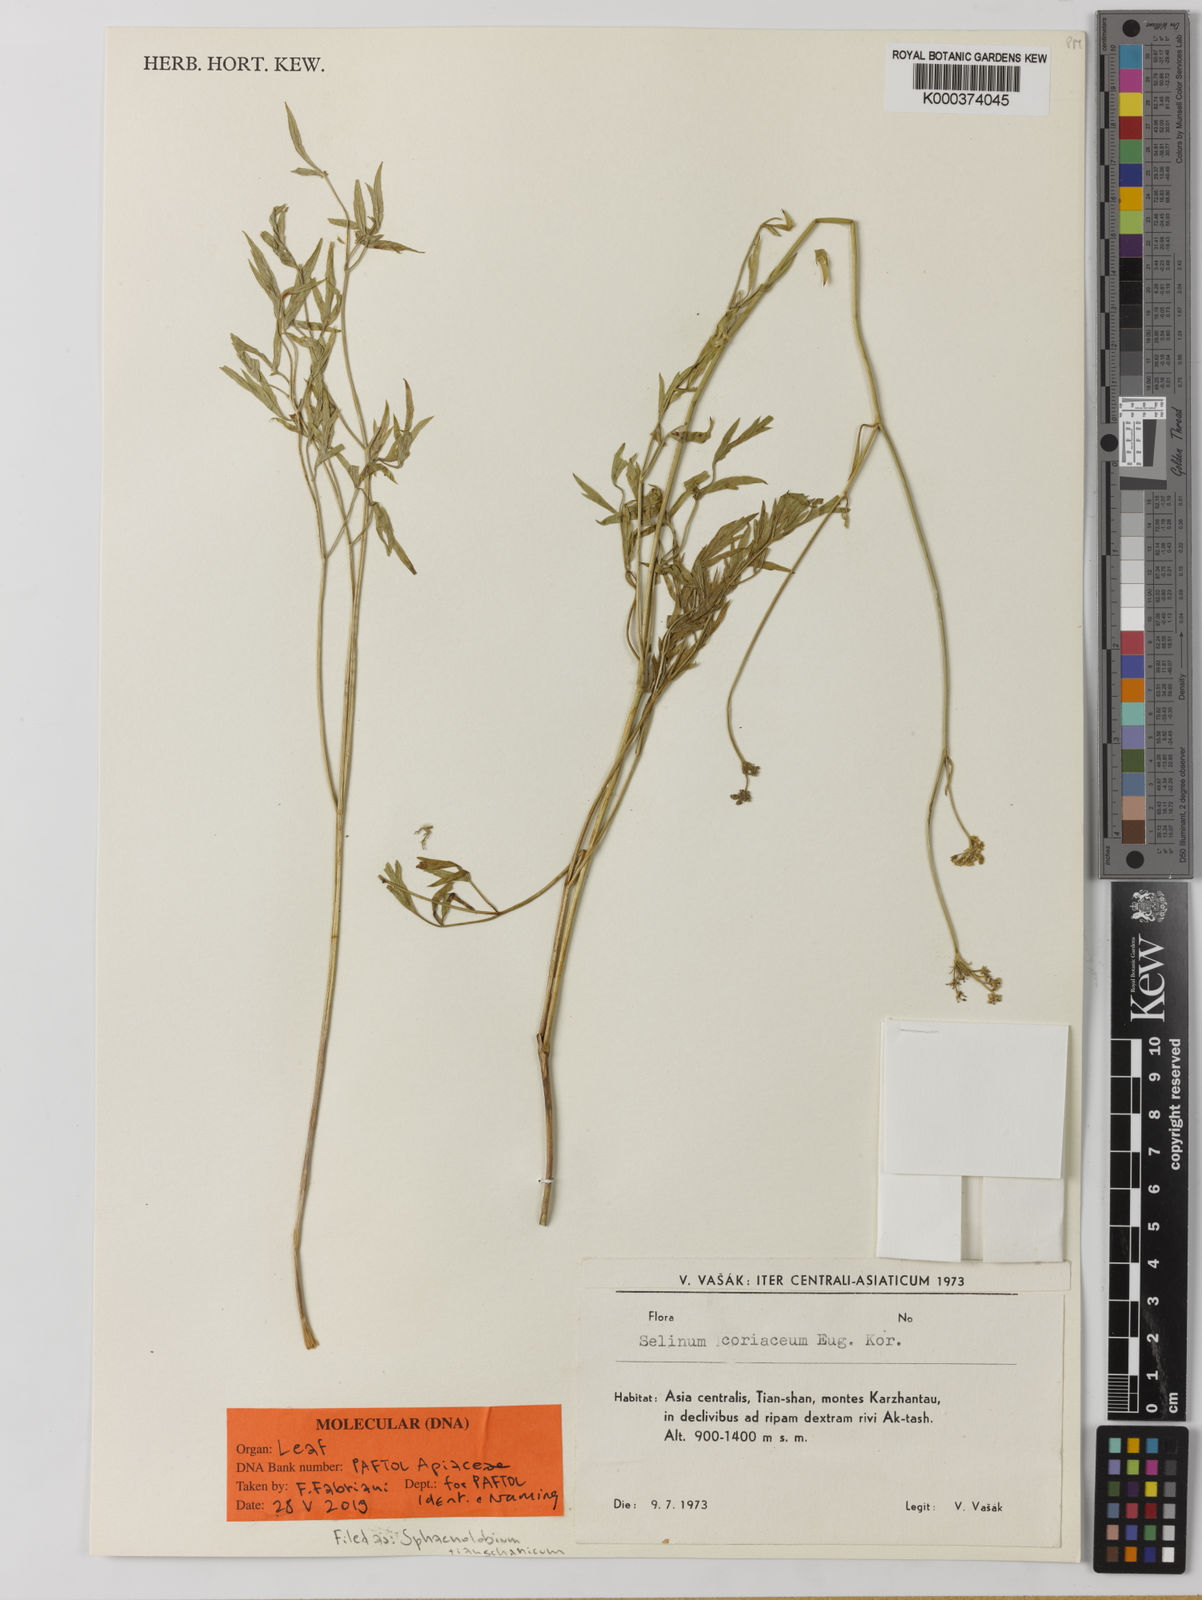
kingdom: Plantae
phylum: Tracheophyta
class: Magnoliopsida
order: Apiales
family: Apiaceae
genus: Sphaenolobium
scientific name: Sphaenolobium tianschanicum
